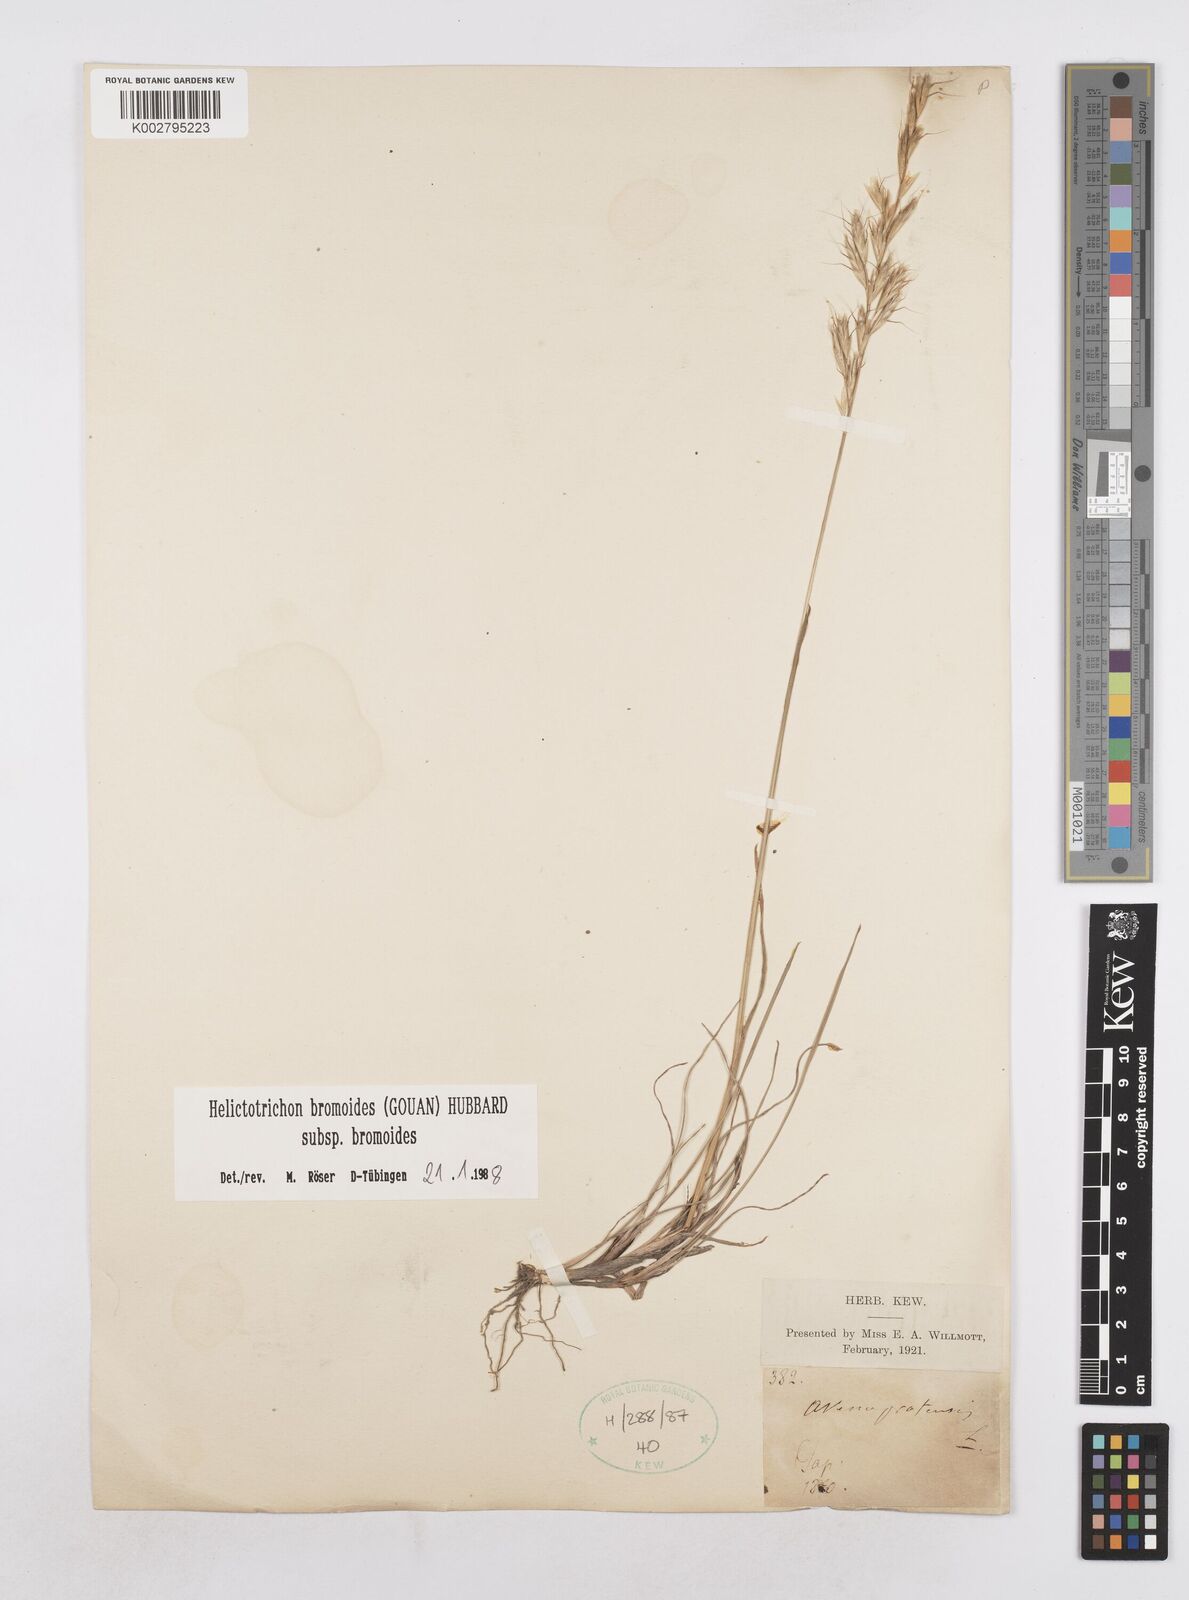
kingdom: Plantae
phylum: Tracheophyta
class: Liliopsida
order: Poales
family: Poaceae
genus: Helictochloa
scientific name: Helictochloa bromoides
